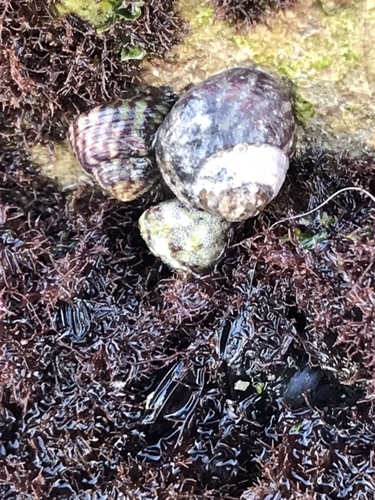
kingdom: Animalia
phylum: Mollusca
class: Gastropoda
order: Trochida
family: Trochidae
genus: Steromphala
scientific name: Steromphala umbilicalis
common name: Flat top shell
